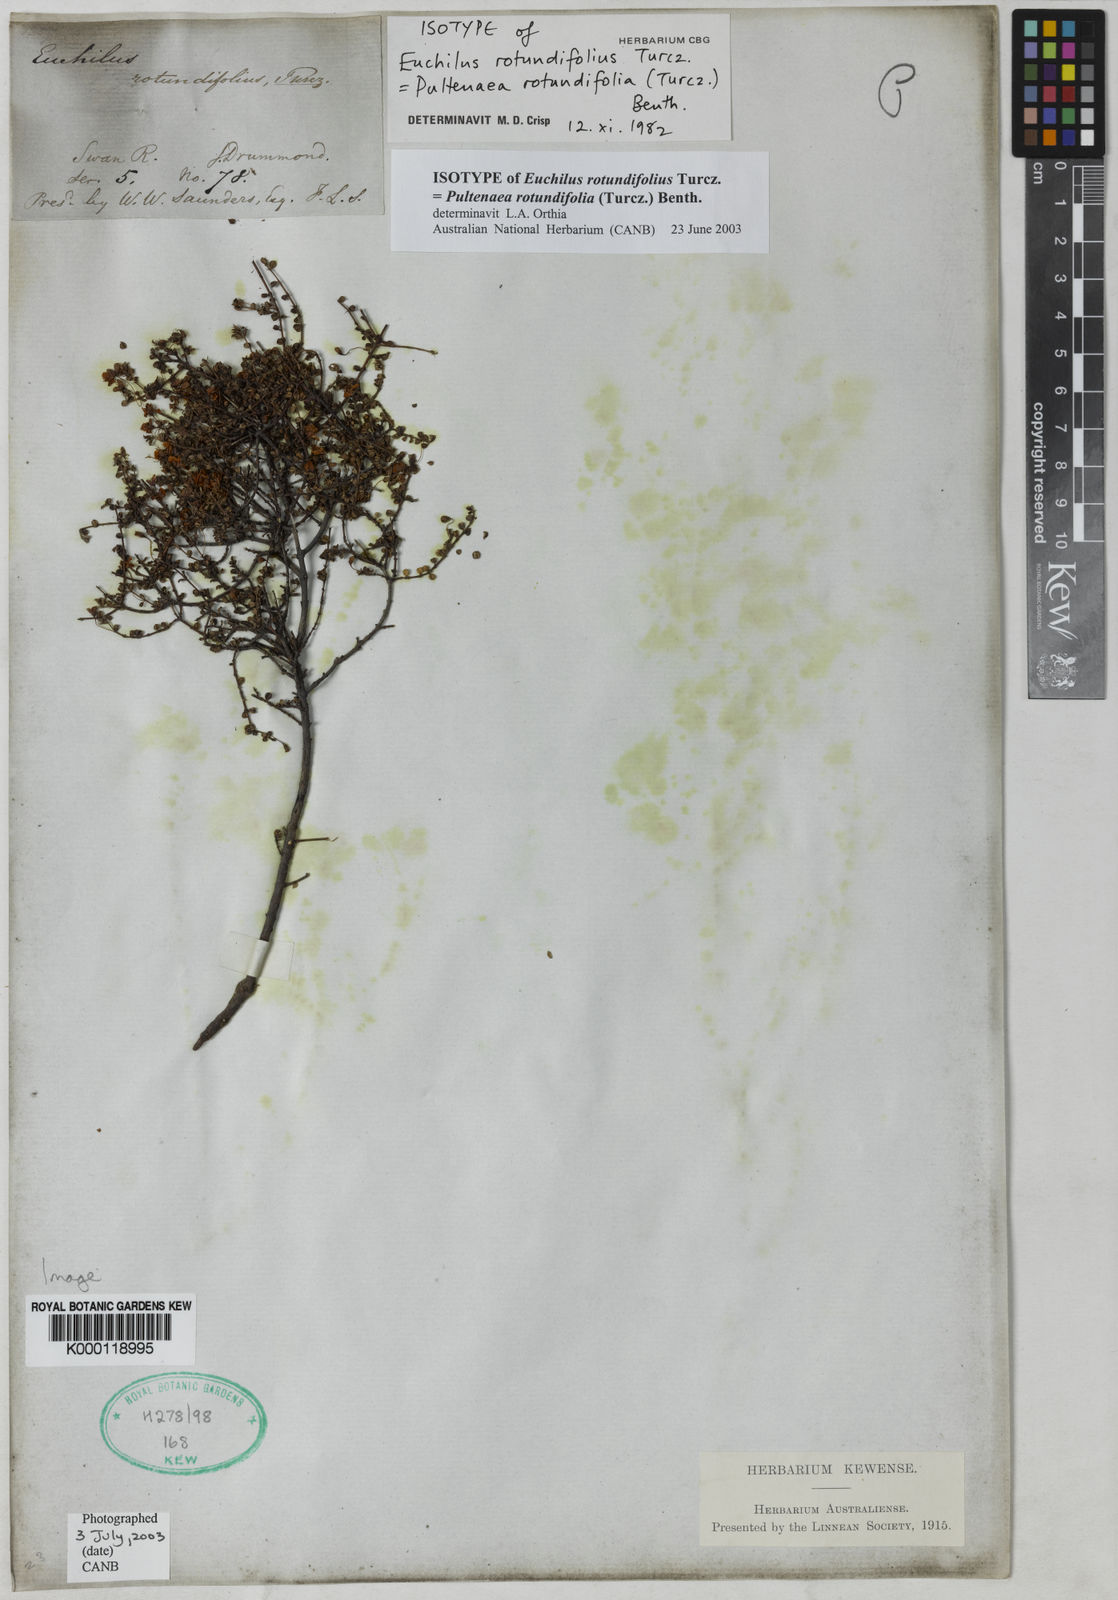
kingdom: Plantae
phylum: Tracheophyta
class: Magnoliopsida
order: Fabales
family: Fabaceae
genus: Pultenaea
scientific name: Pultenaea rotundifolia
